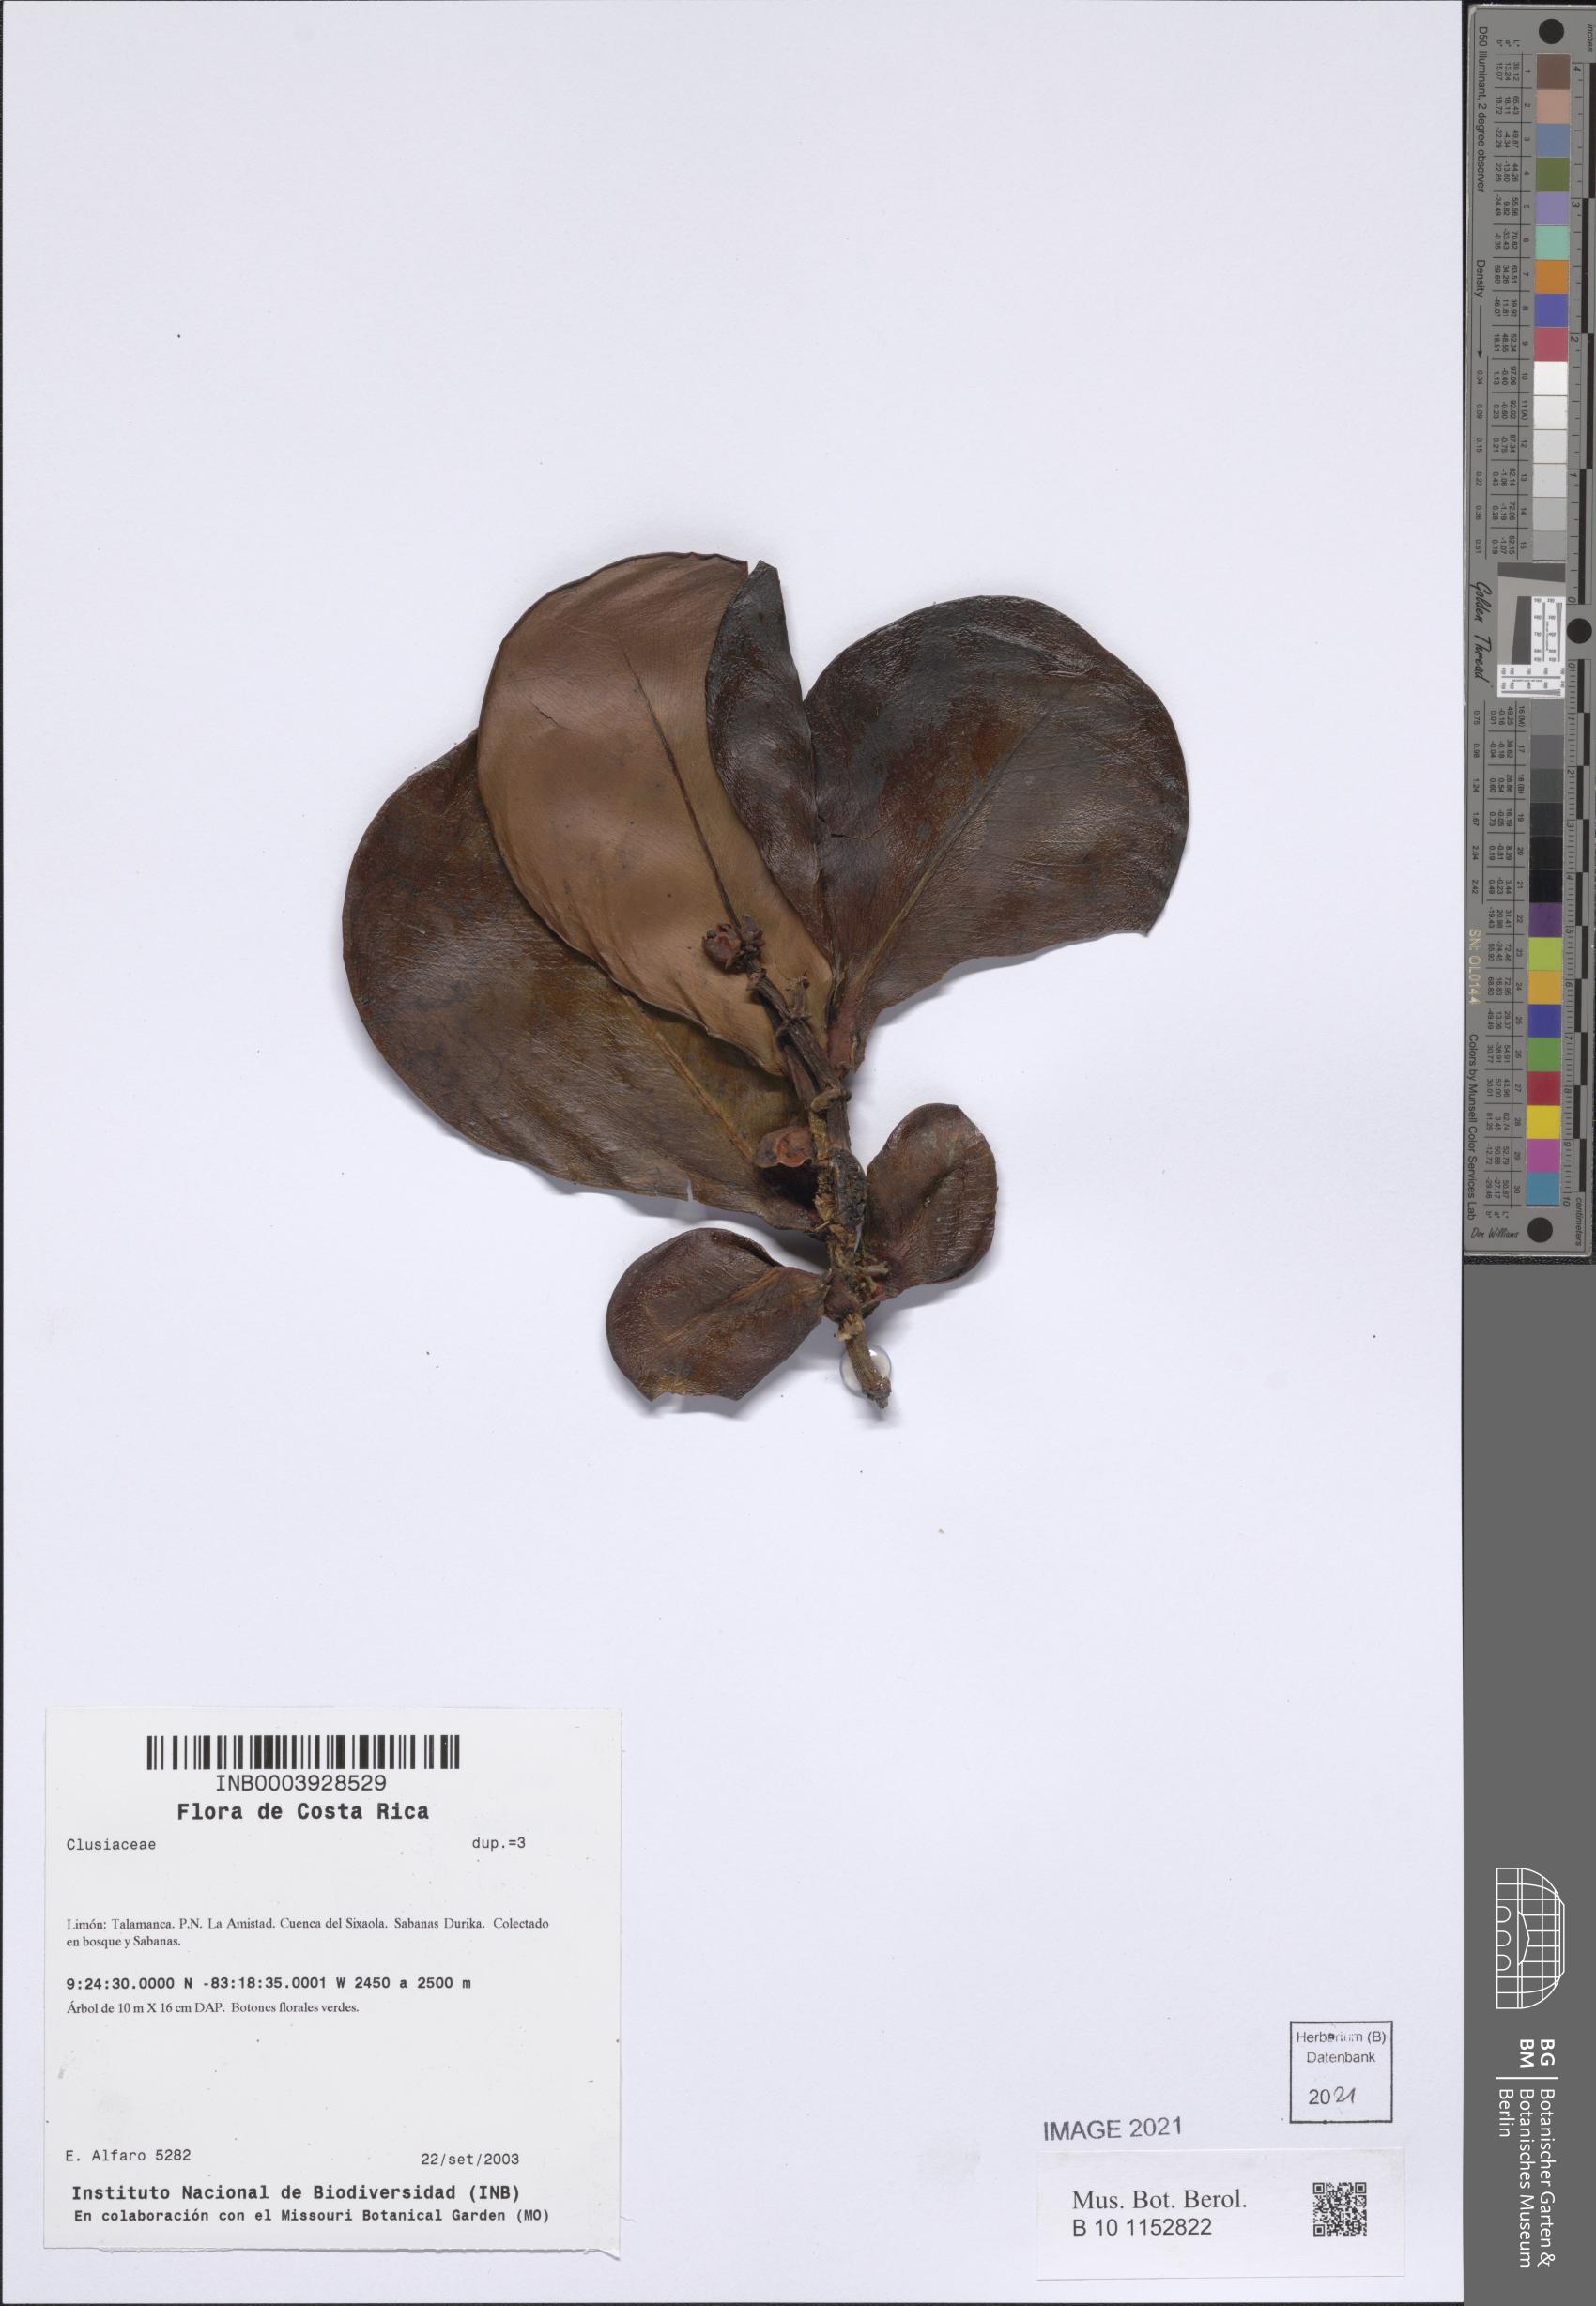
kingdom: Plantae
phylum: Tracheophyta
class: Magnoliopsida
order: Malpighiales
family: Clusiaceae
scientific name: Clusiaceae
